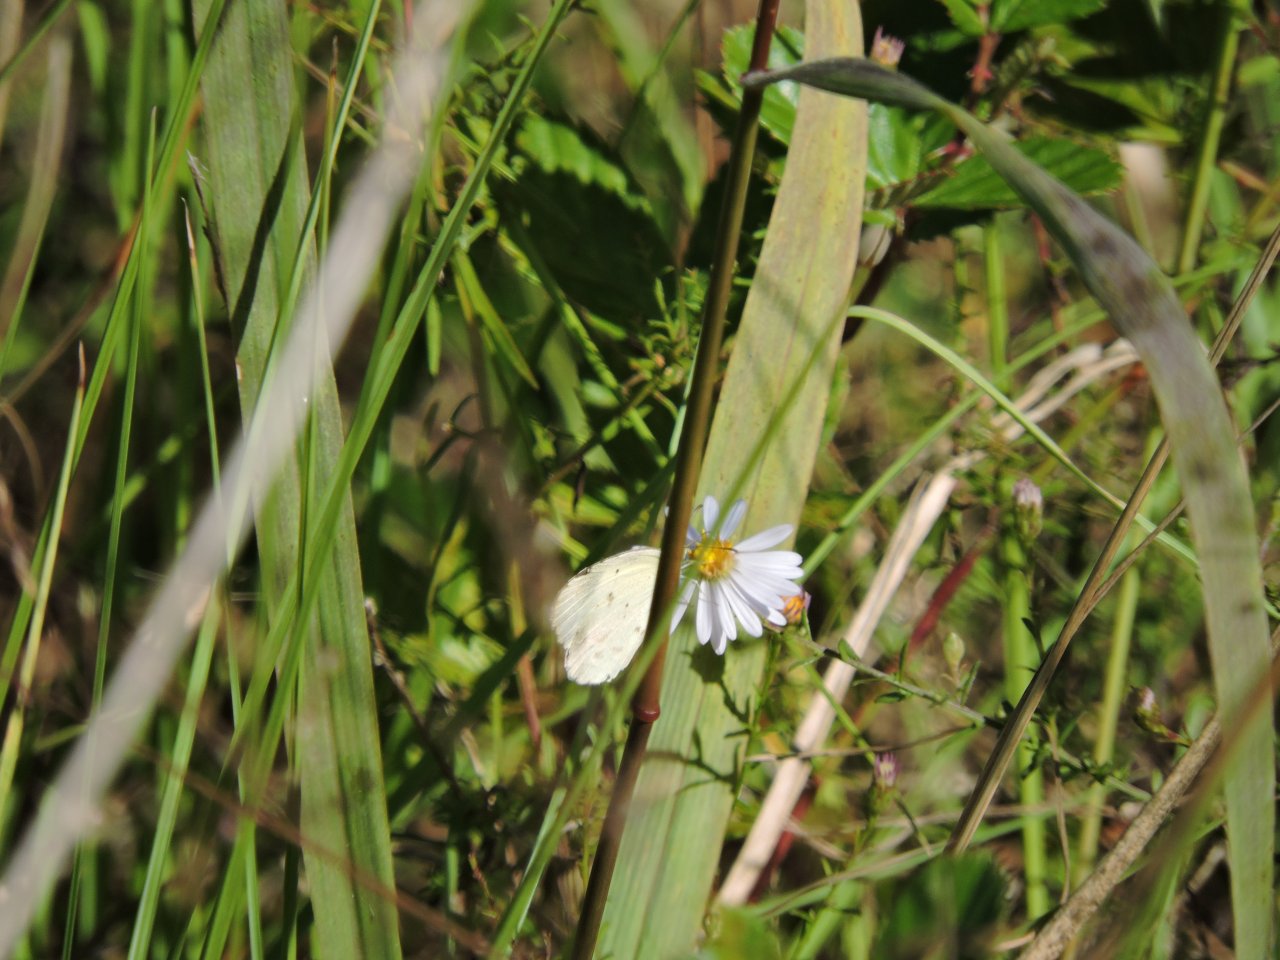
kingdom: Animalia
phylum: Arthropoda
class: Insecta
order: Lepidoptera
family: Pieridae
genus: Pyrisitia
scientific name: Pyrisitia lisa
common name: Little Yellow
